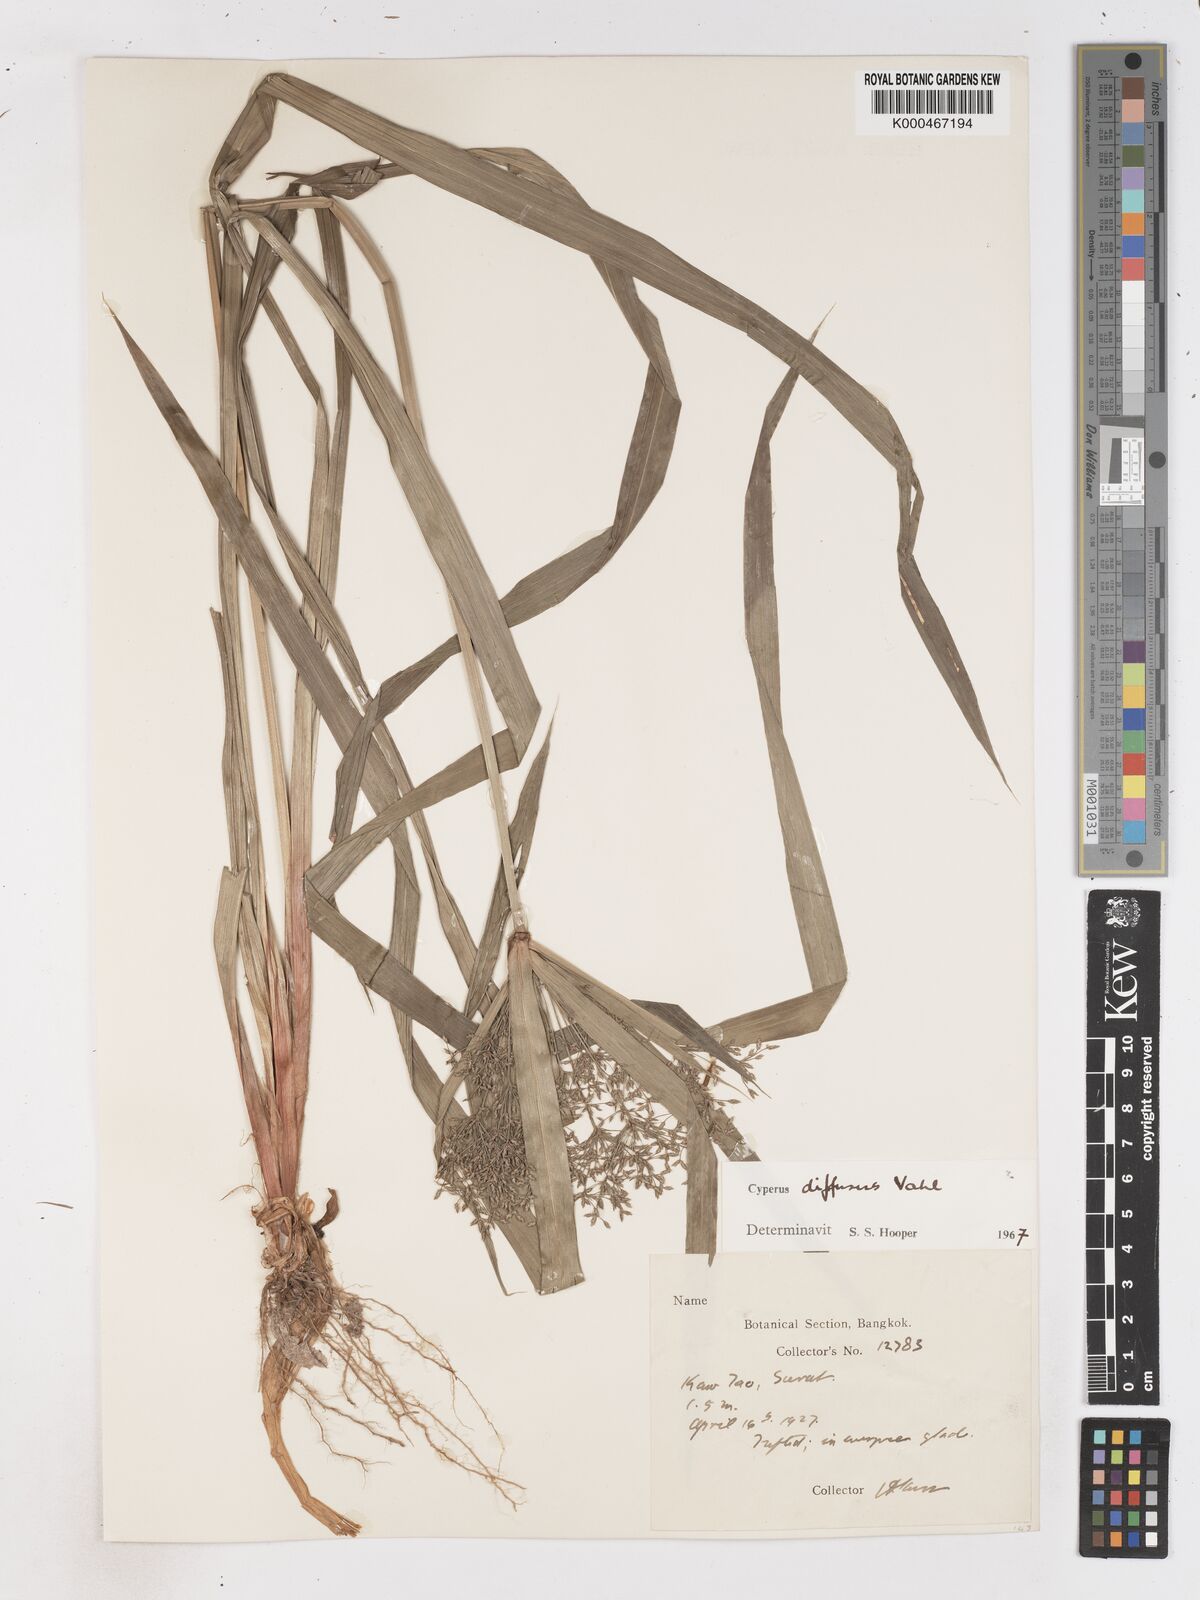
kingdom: Plantae
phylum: Tracheophyta
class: Liliopsida
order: Poales
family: Cyperaceae
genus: Cyperus
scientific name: Cyperus diffusus
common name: Dwarf umbrella grass
